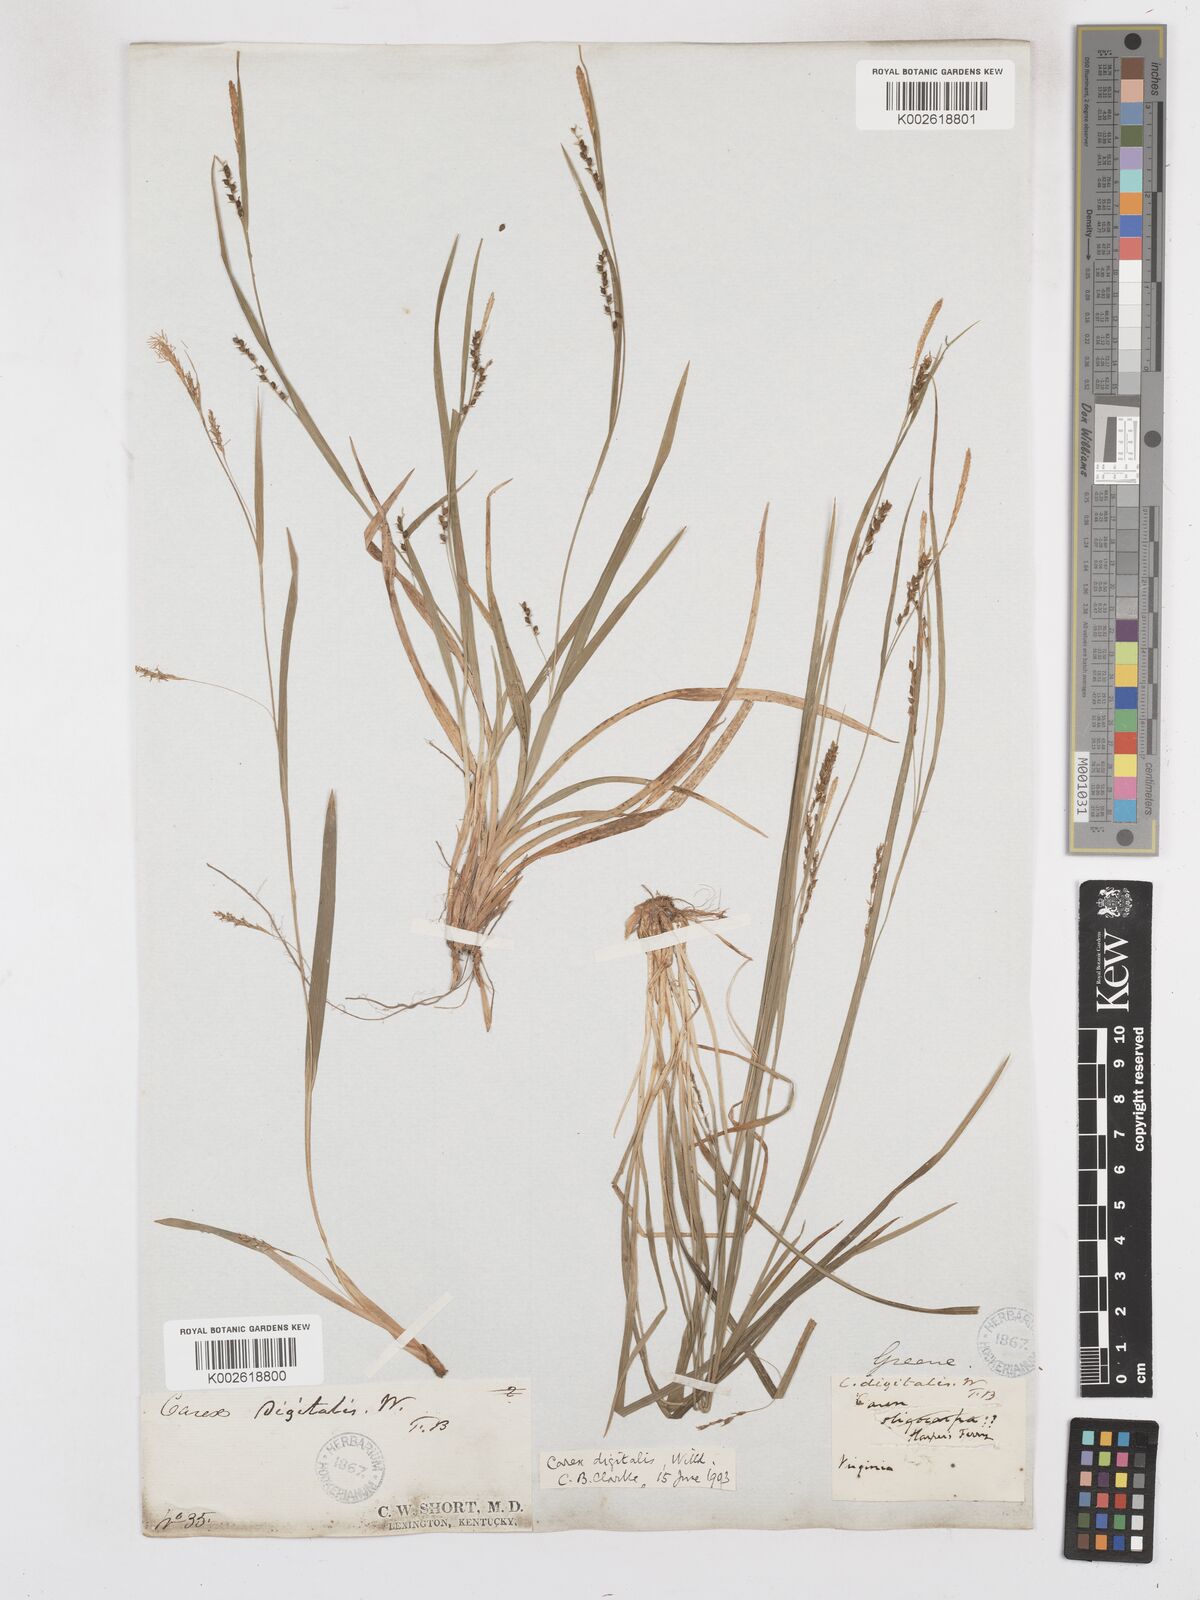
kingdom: Plantae
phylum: Tracheophyta
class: Liliopsida
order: Poales
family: Cyperaceae
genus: Carex
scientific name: Carex digitalis
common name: Slender wood sedge
